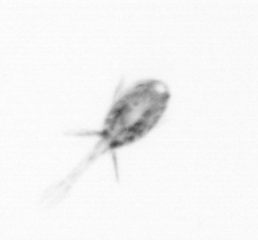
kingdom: Animalia
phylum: Arthropoda
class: Copepoda
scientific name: Copepoda
